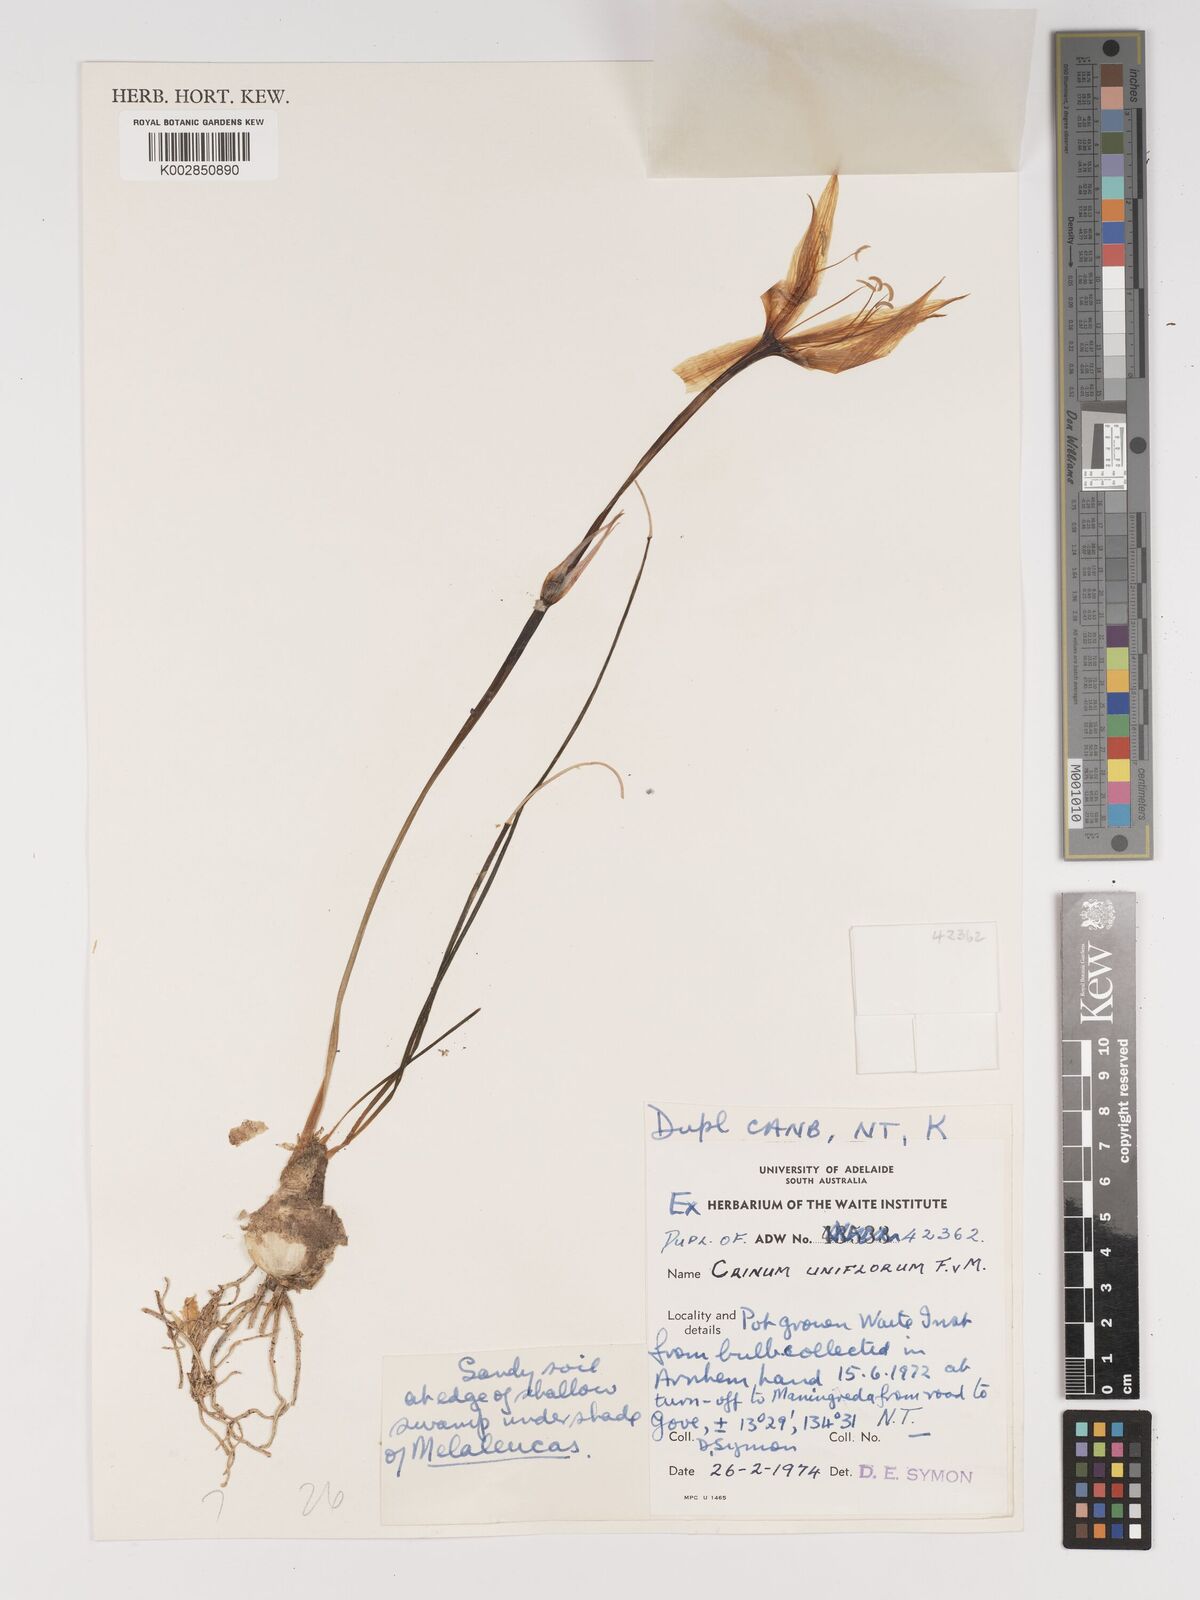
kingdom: Plantae
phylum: Tracheophyta
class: Liliopsida
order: Asparagales
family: Amaryllidaceae
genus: Crinum
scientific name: Crinum uniflorum
